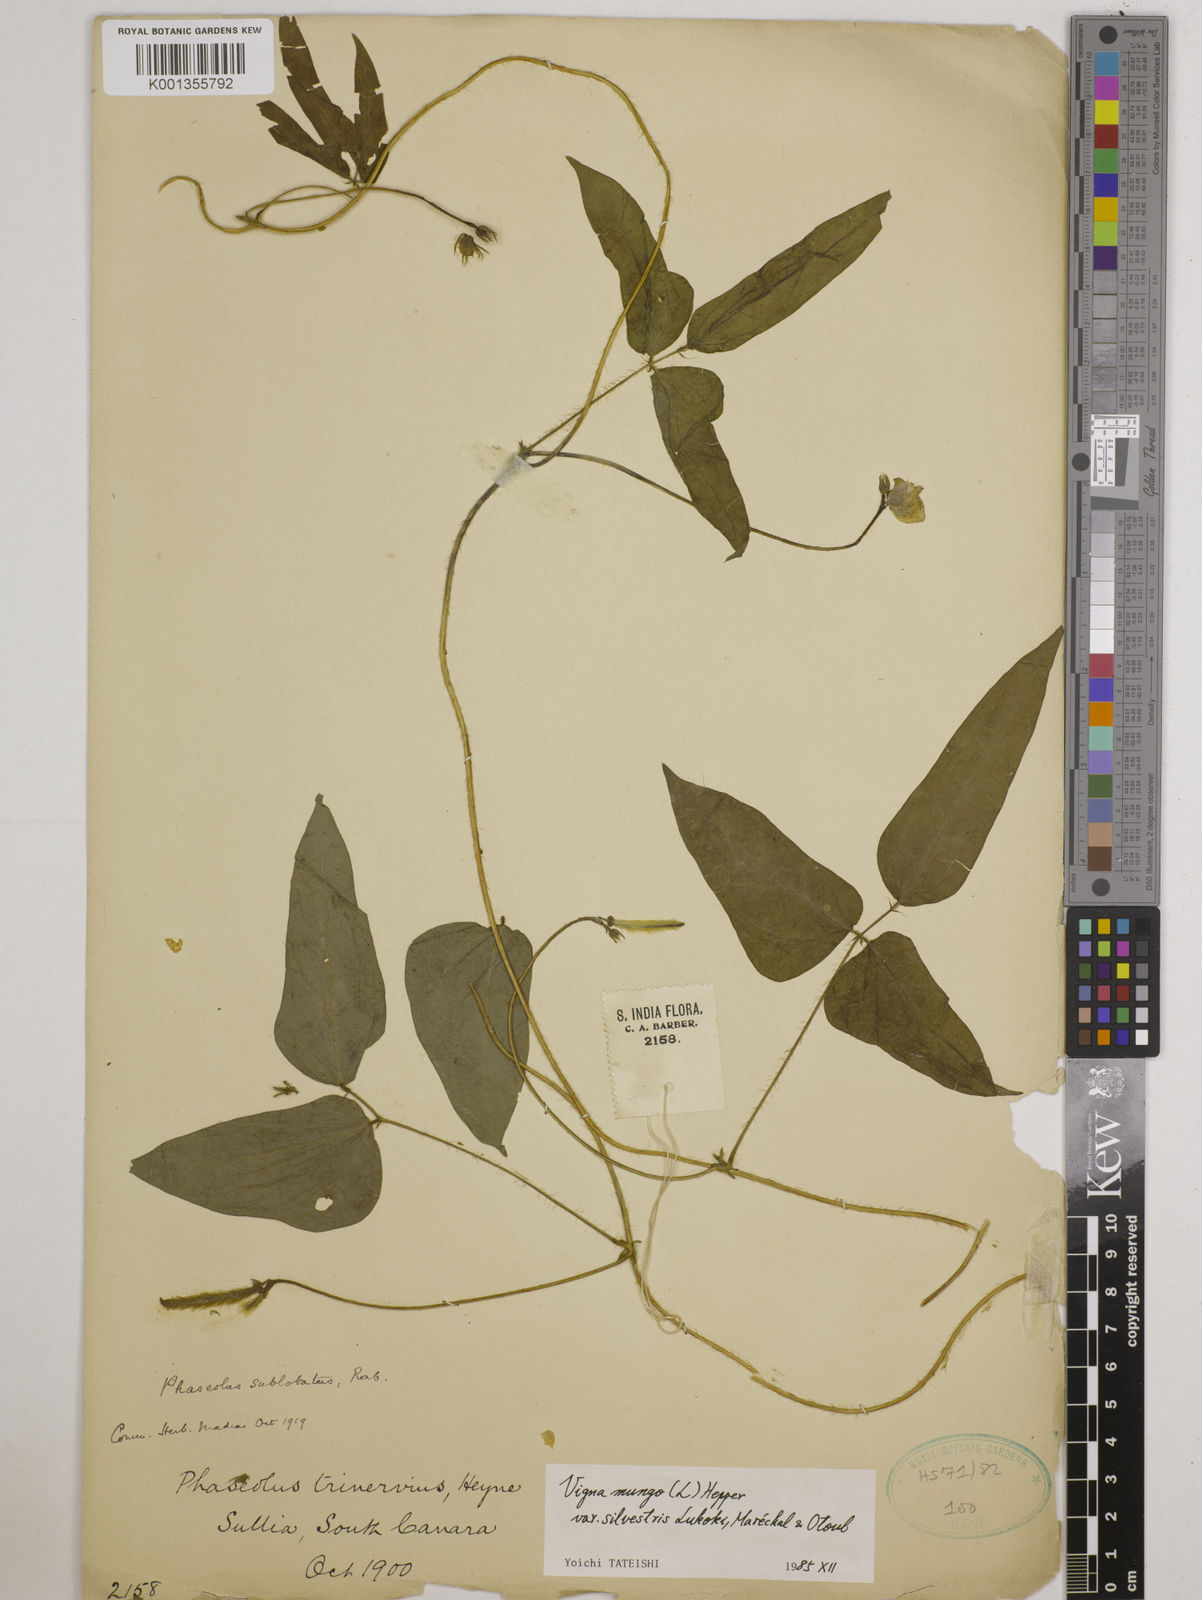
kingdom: Plantae
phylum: Tracheophyta
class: Magnoliopsida
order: Fabales
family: Fabaceae
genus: Vigna
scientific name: Vigna mungo
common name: Black gram
